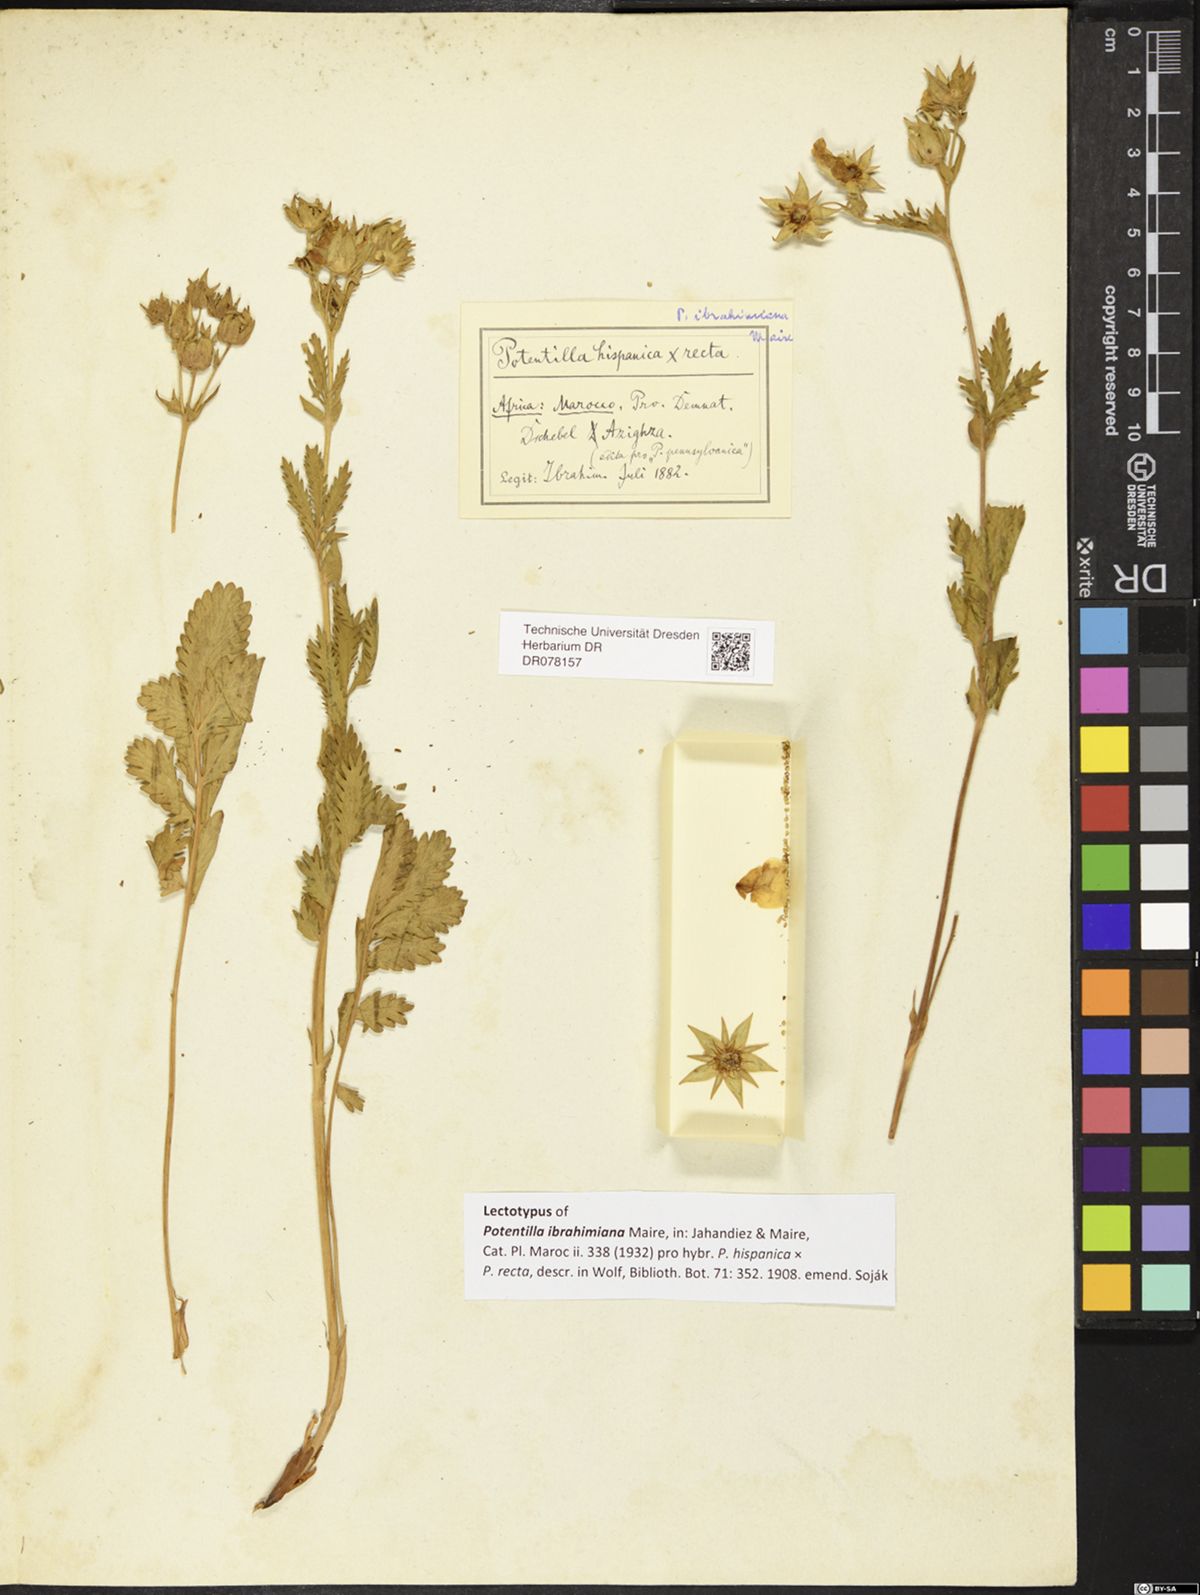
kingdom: Plantae
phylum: Tracheophyta
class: Magnoliopsida
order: Rosales
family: Rosaceae
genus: Potentilla
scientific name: Potentilla ibrahimiana
